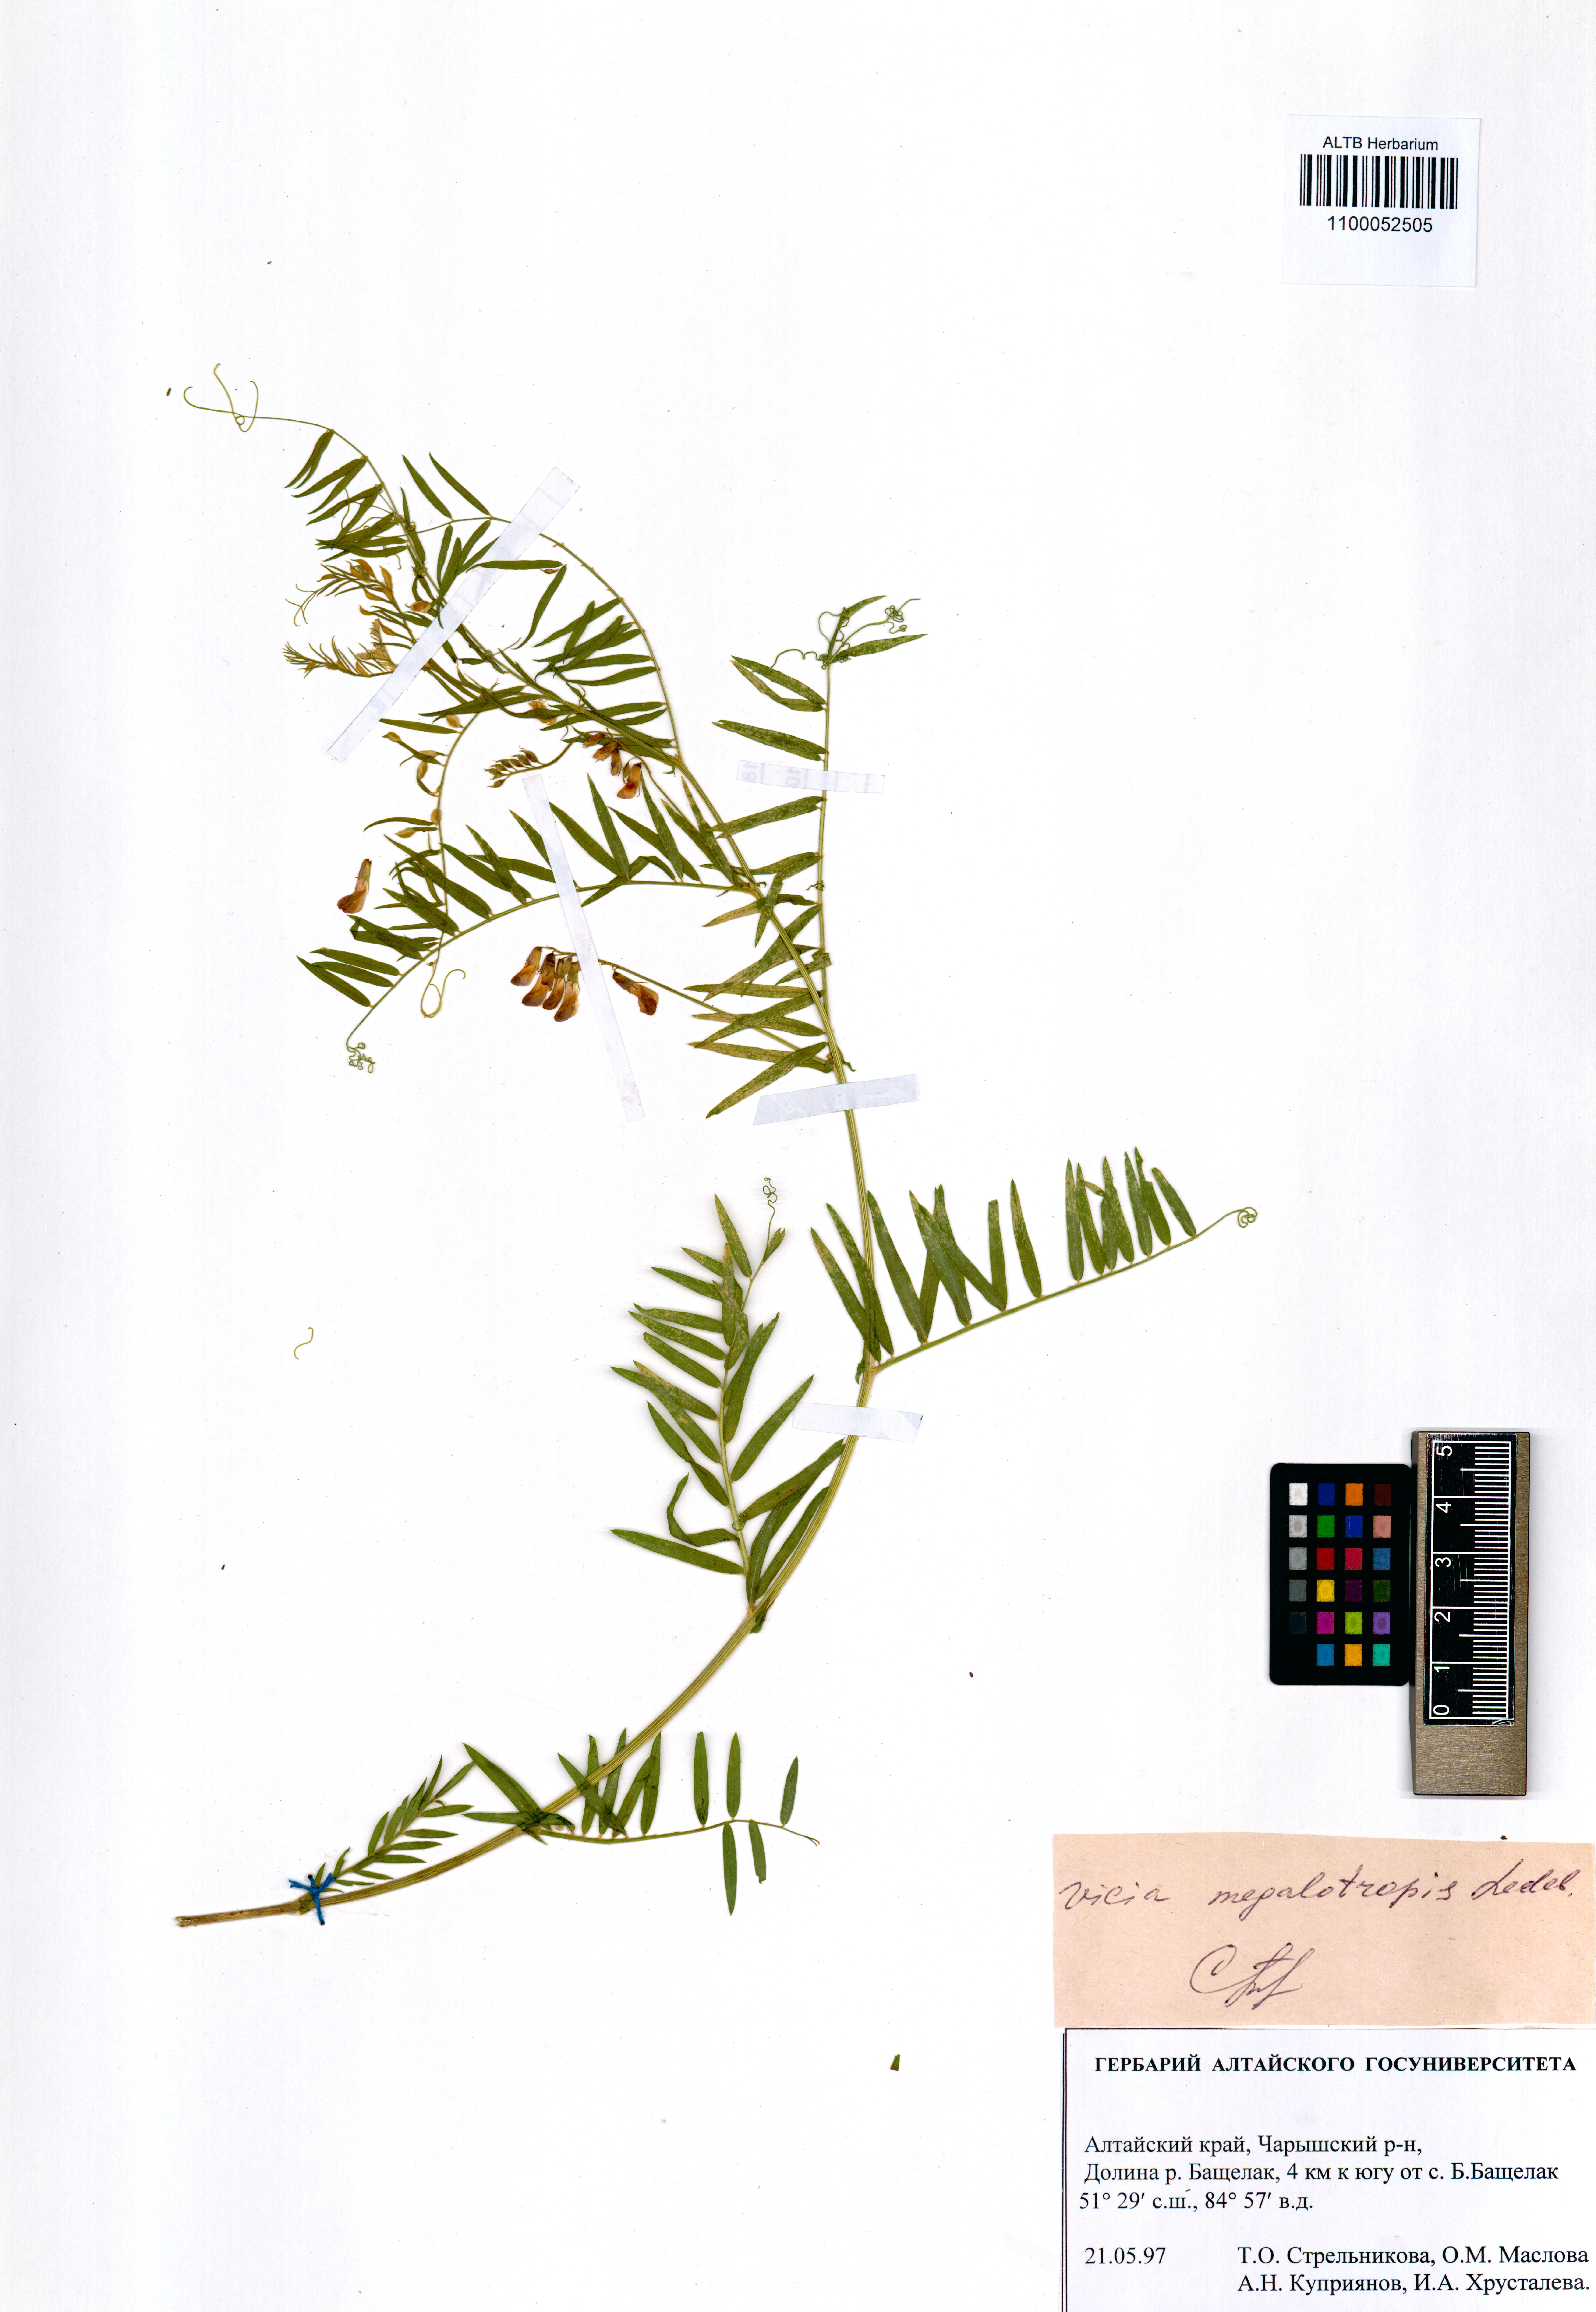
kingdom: Plantae
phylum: Tracheophyta
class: Magnoliopsida
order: Fabales
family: Fabaceae
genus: Vicia
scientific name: Vicia megalotropis
